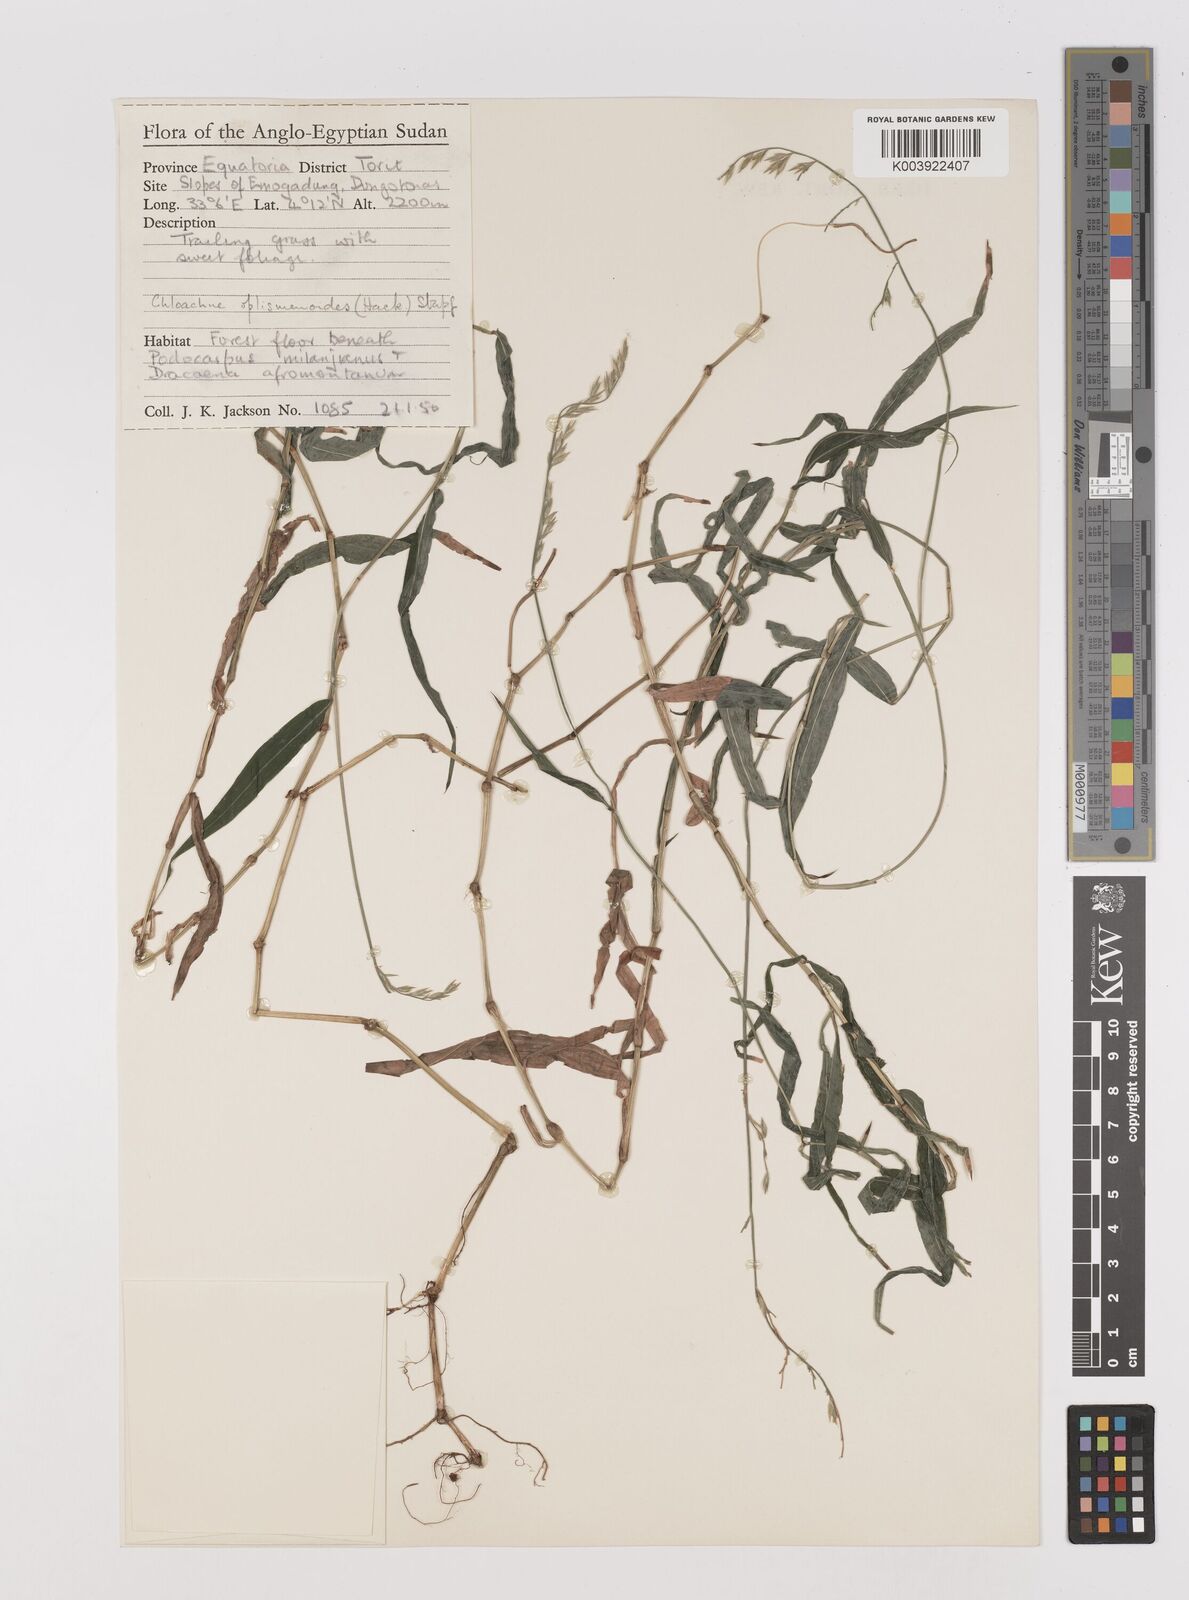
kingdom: Plantae
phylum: Tracheophyta
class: Liliopsida
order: Poales
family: Poaceae
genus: Poecilostachys
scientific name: Poecilostachys oplismenoides
